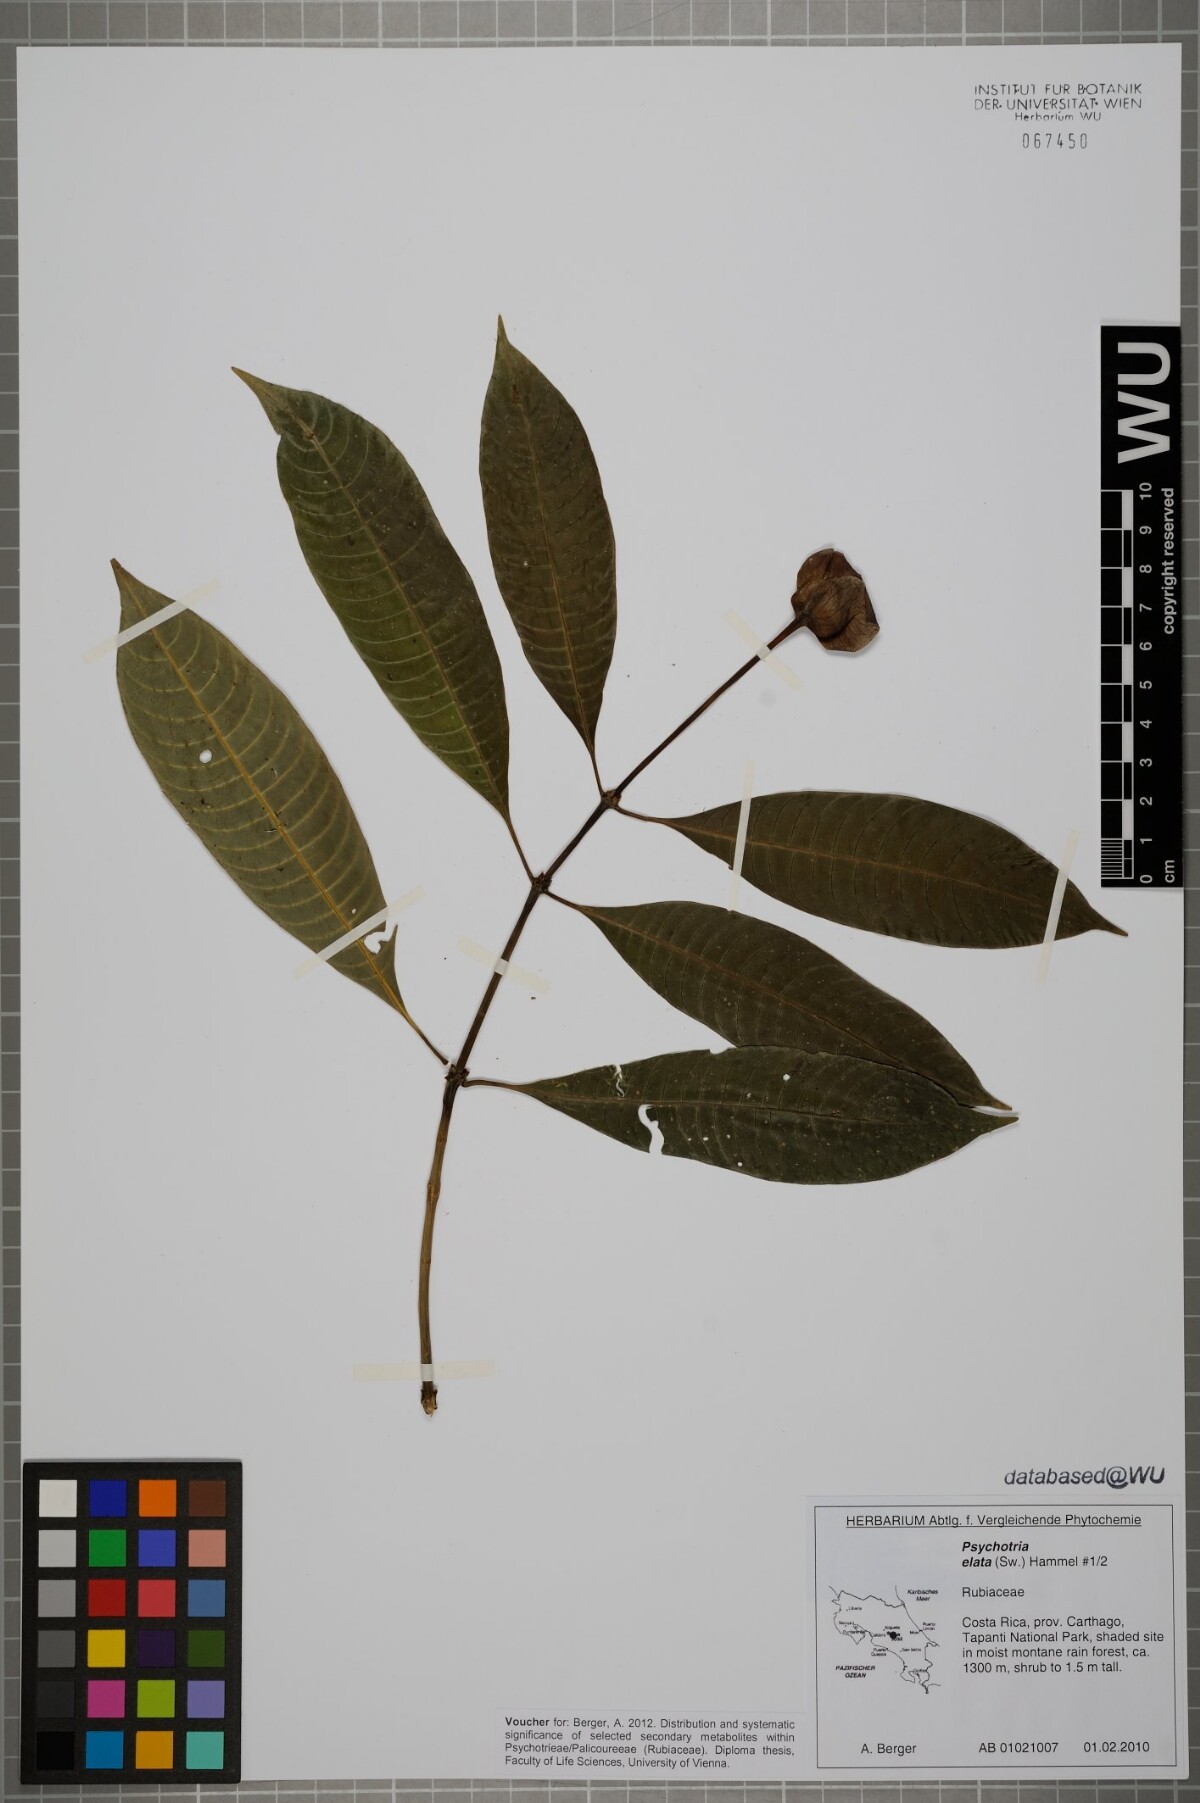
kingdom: Plantae
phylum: Tracheophyta
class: Magnoliopsida
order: Gentianales
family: Rubiaceae
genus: Palicourea
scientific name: Palicourea elata
